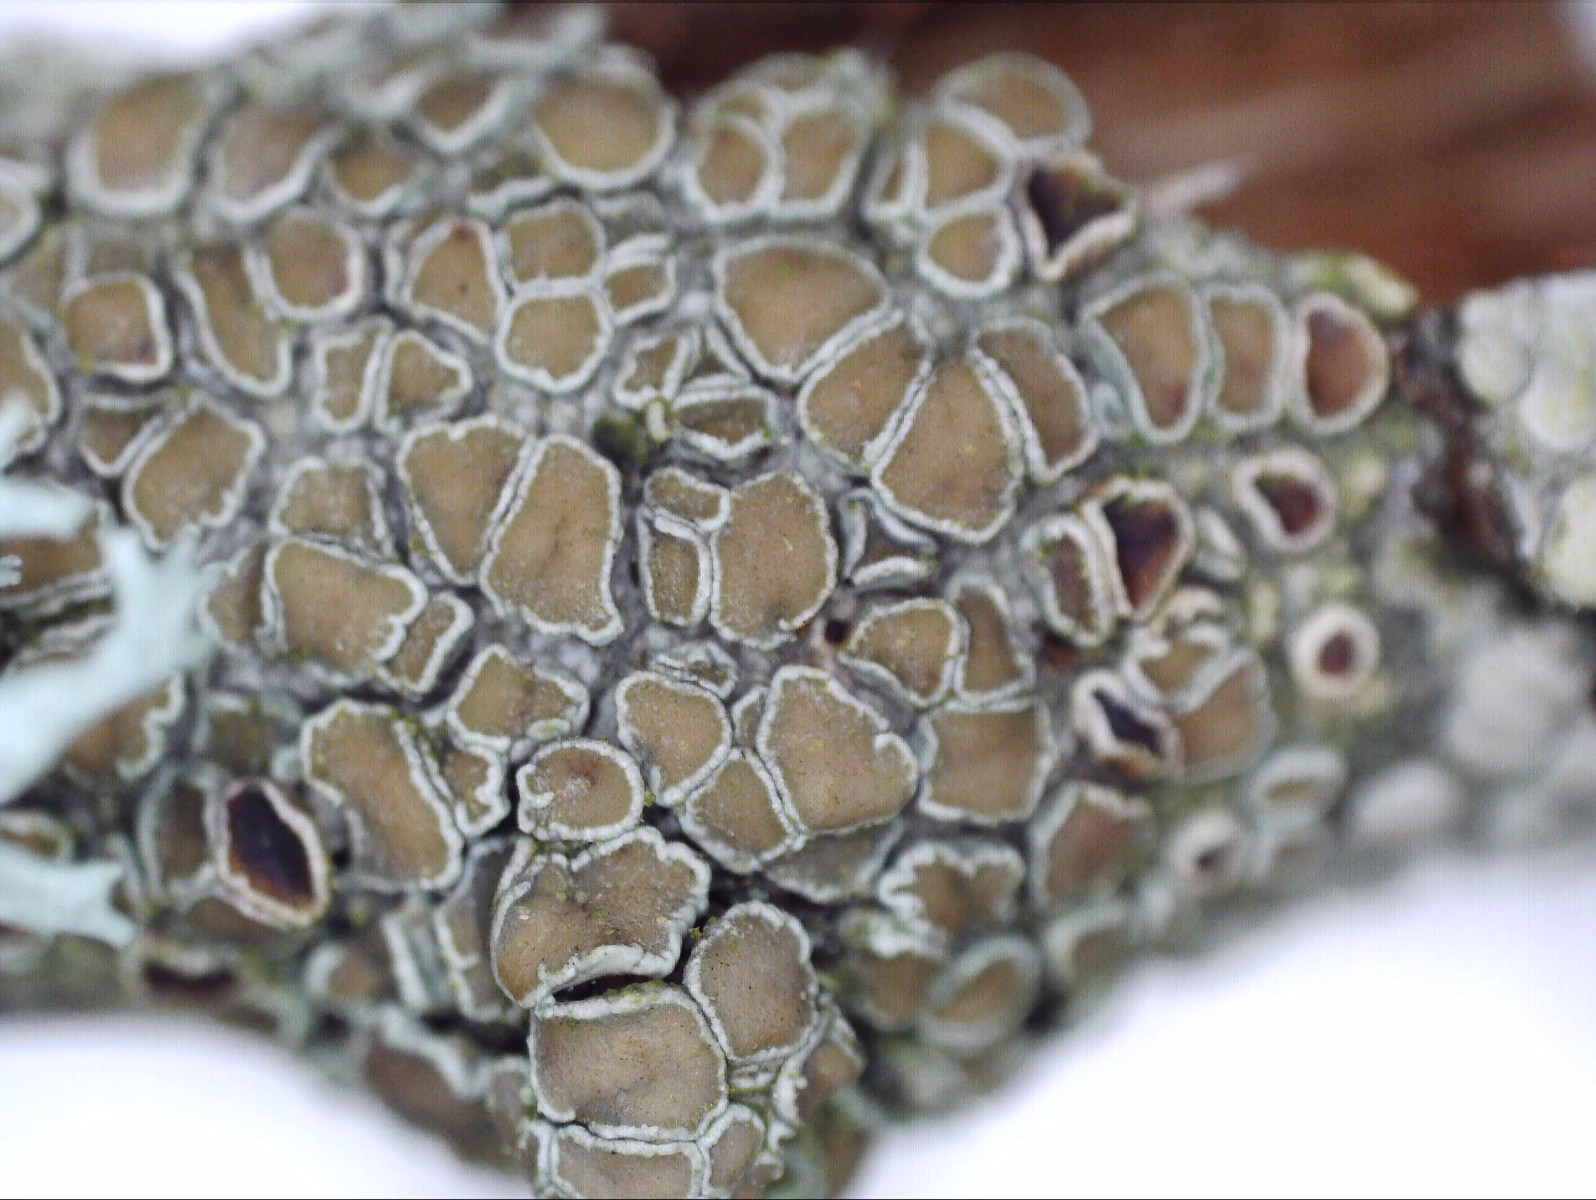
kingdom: Fungi
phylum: Ascomycota
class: Lecanoromycetes
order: Lecanorales
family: Lecanoraceae
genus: Lecanora
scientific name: Lecanora chlarotera
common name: brun kantskivelav
